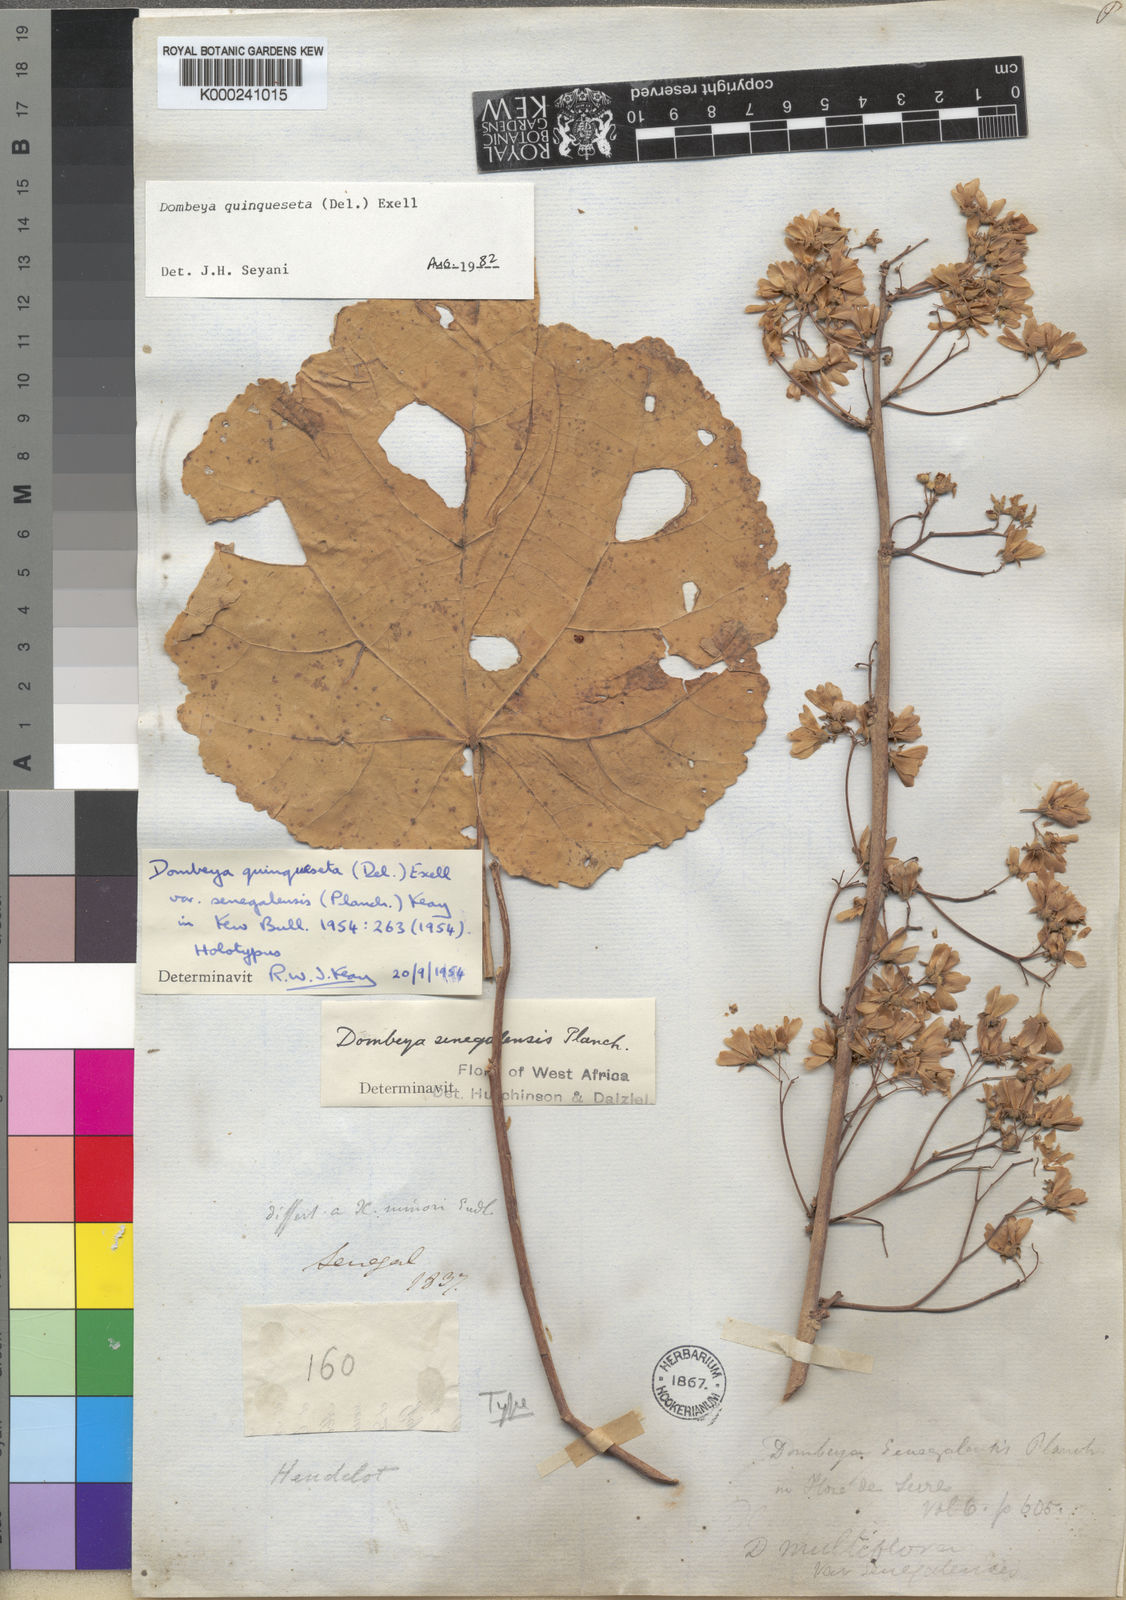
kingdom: Plantae
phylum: Tracheophyta
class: Magnoliopsida
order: Malvales
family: Malvaceae
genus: Dombeya
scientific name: Dombeya quinqueseta
